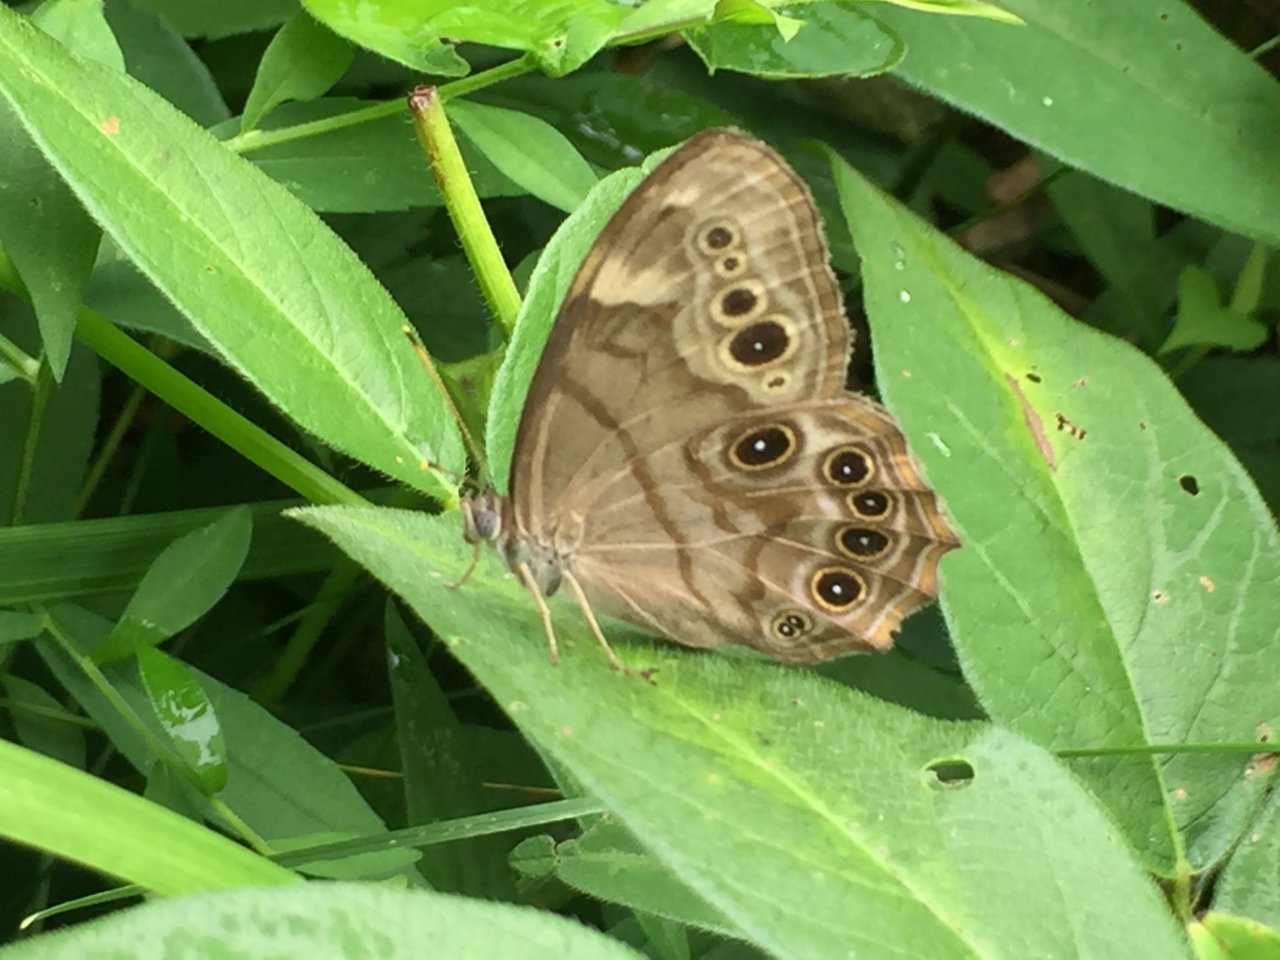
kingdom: Animalia
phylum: Arthropoda
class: Insecta
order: Lepidoptera
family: Nymphalidae
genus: Lethe
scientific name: Lethe anthedon
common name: Northern Pearly-Eye
